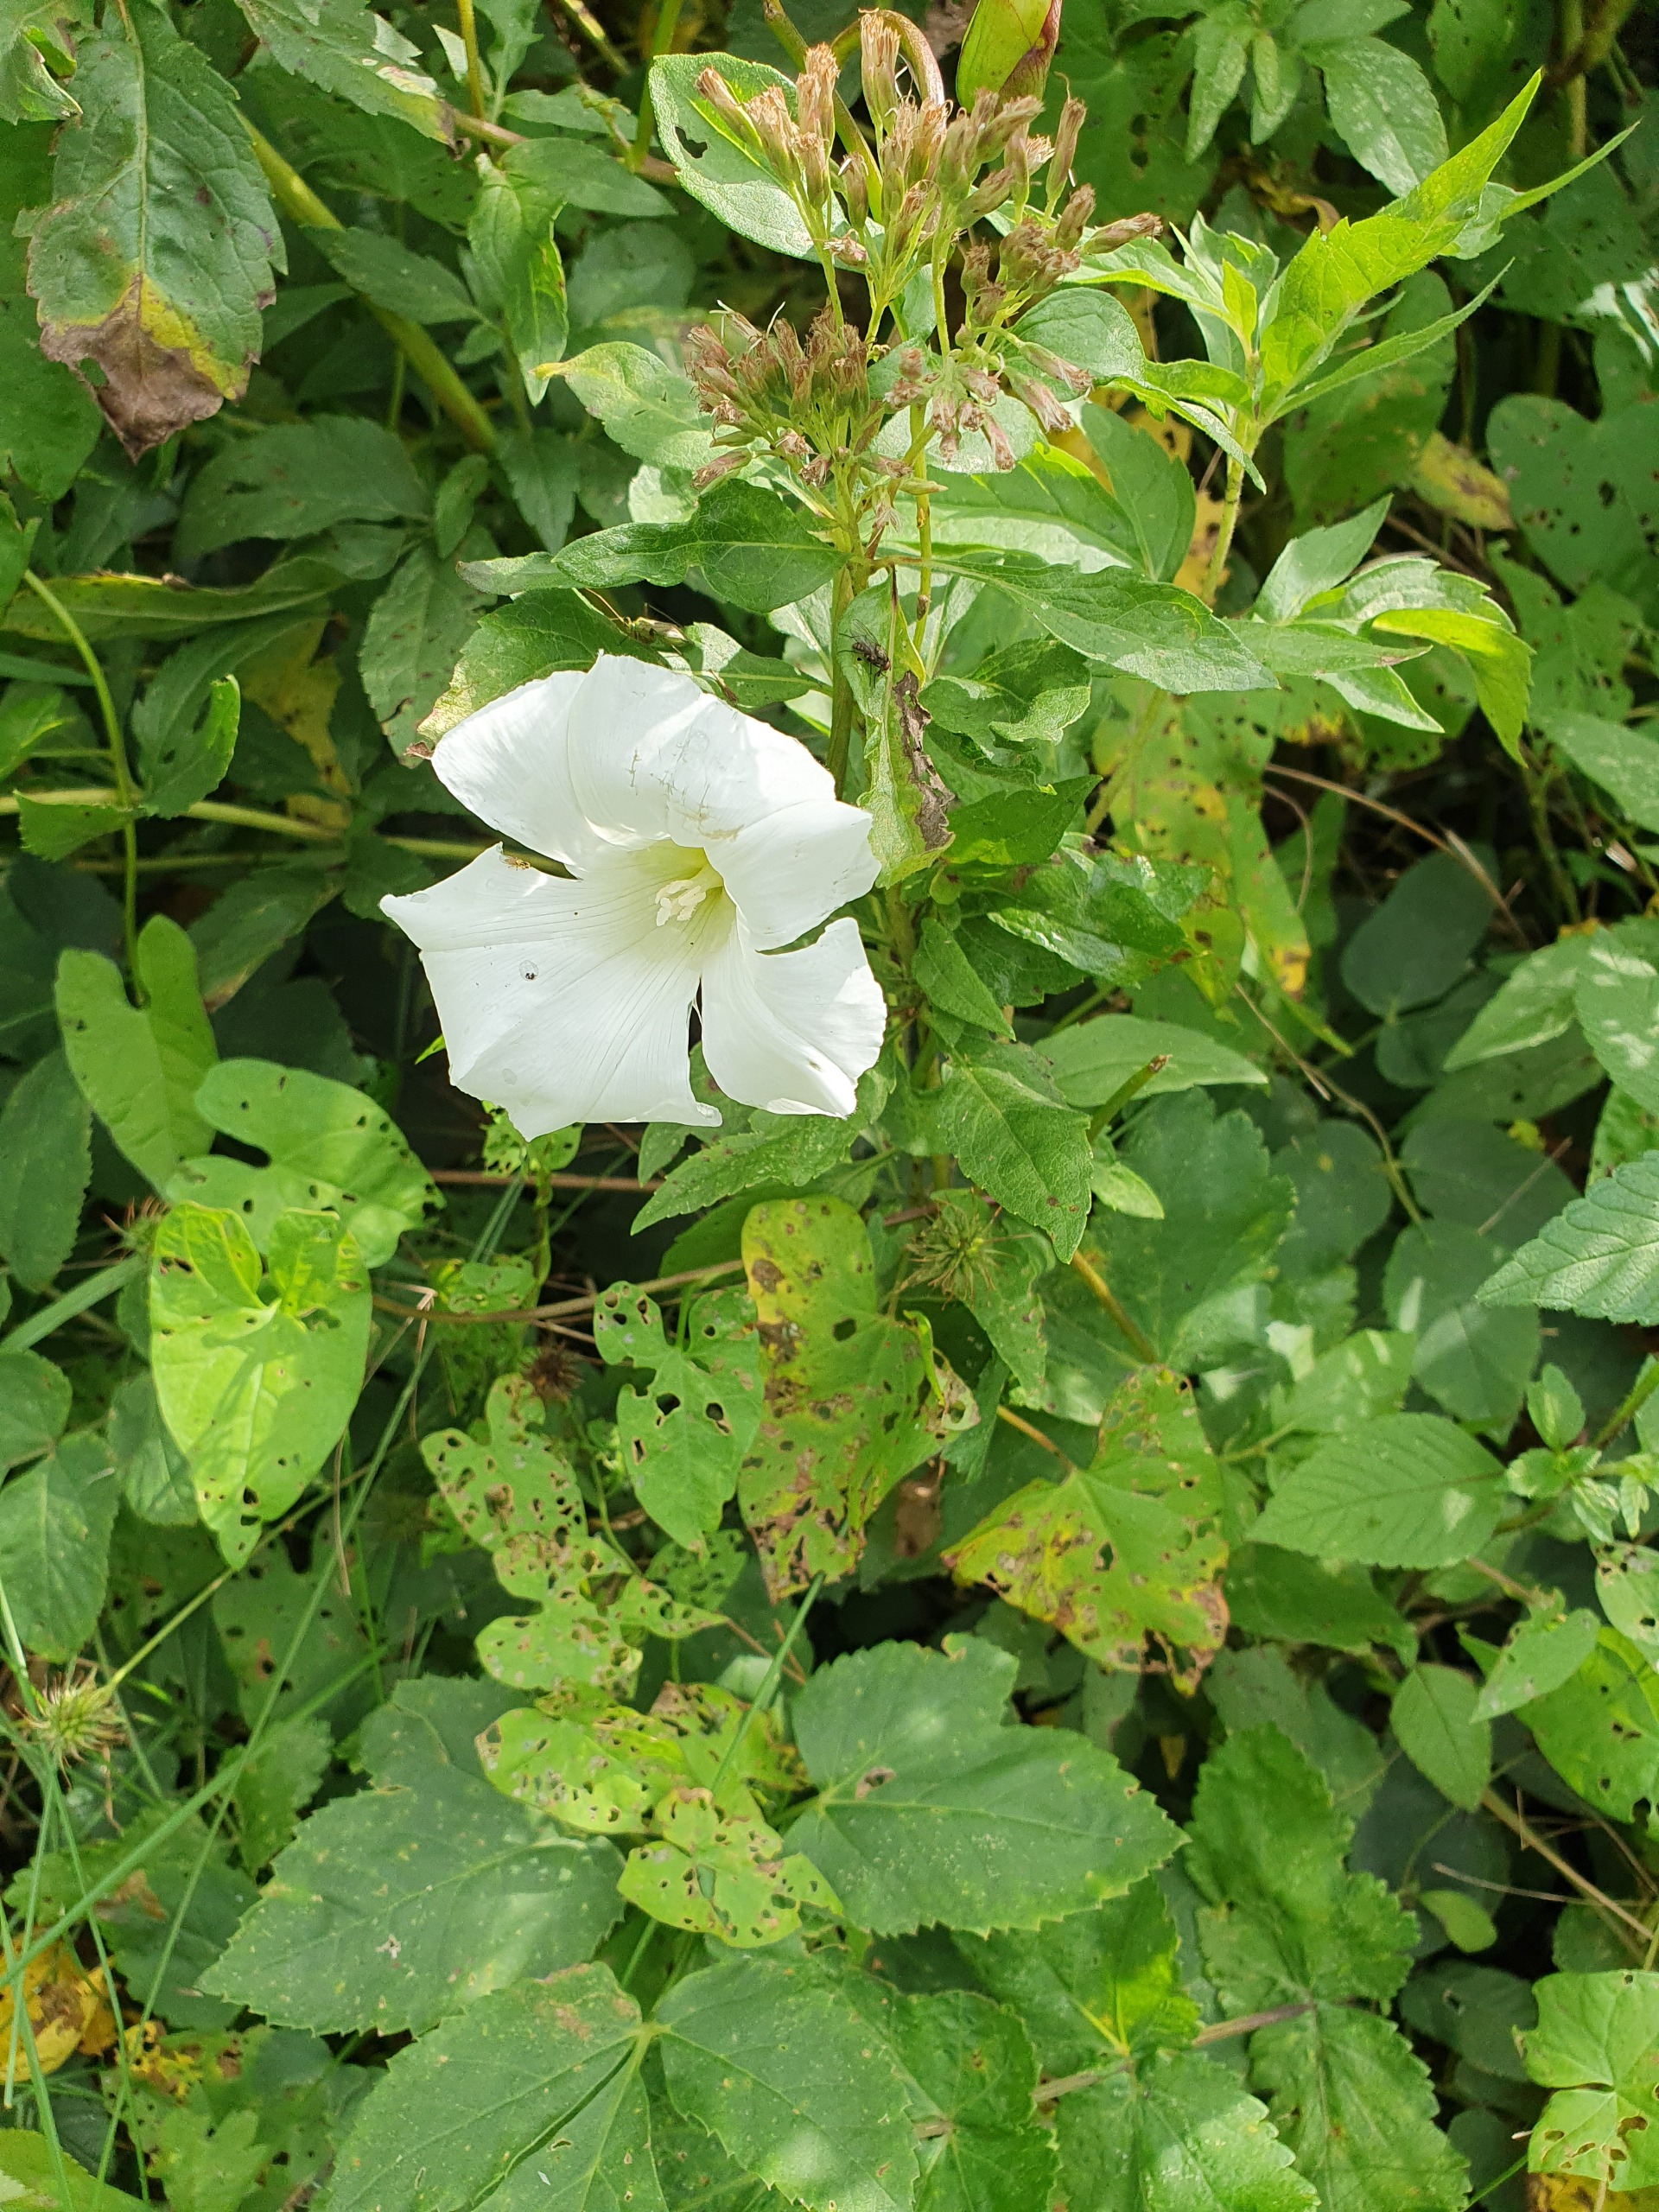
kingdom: Plantae
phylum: Tracheophyta
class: Magnoliopsida
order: Solanales
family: Convolvulaceae
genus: Calystegia
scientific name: Calystegia sepium
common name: Gærde-snerle
